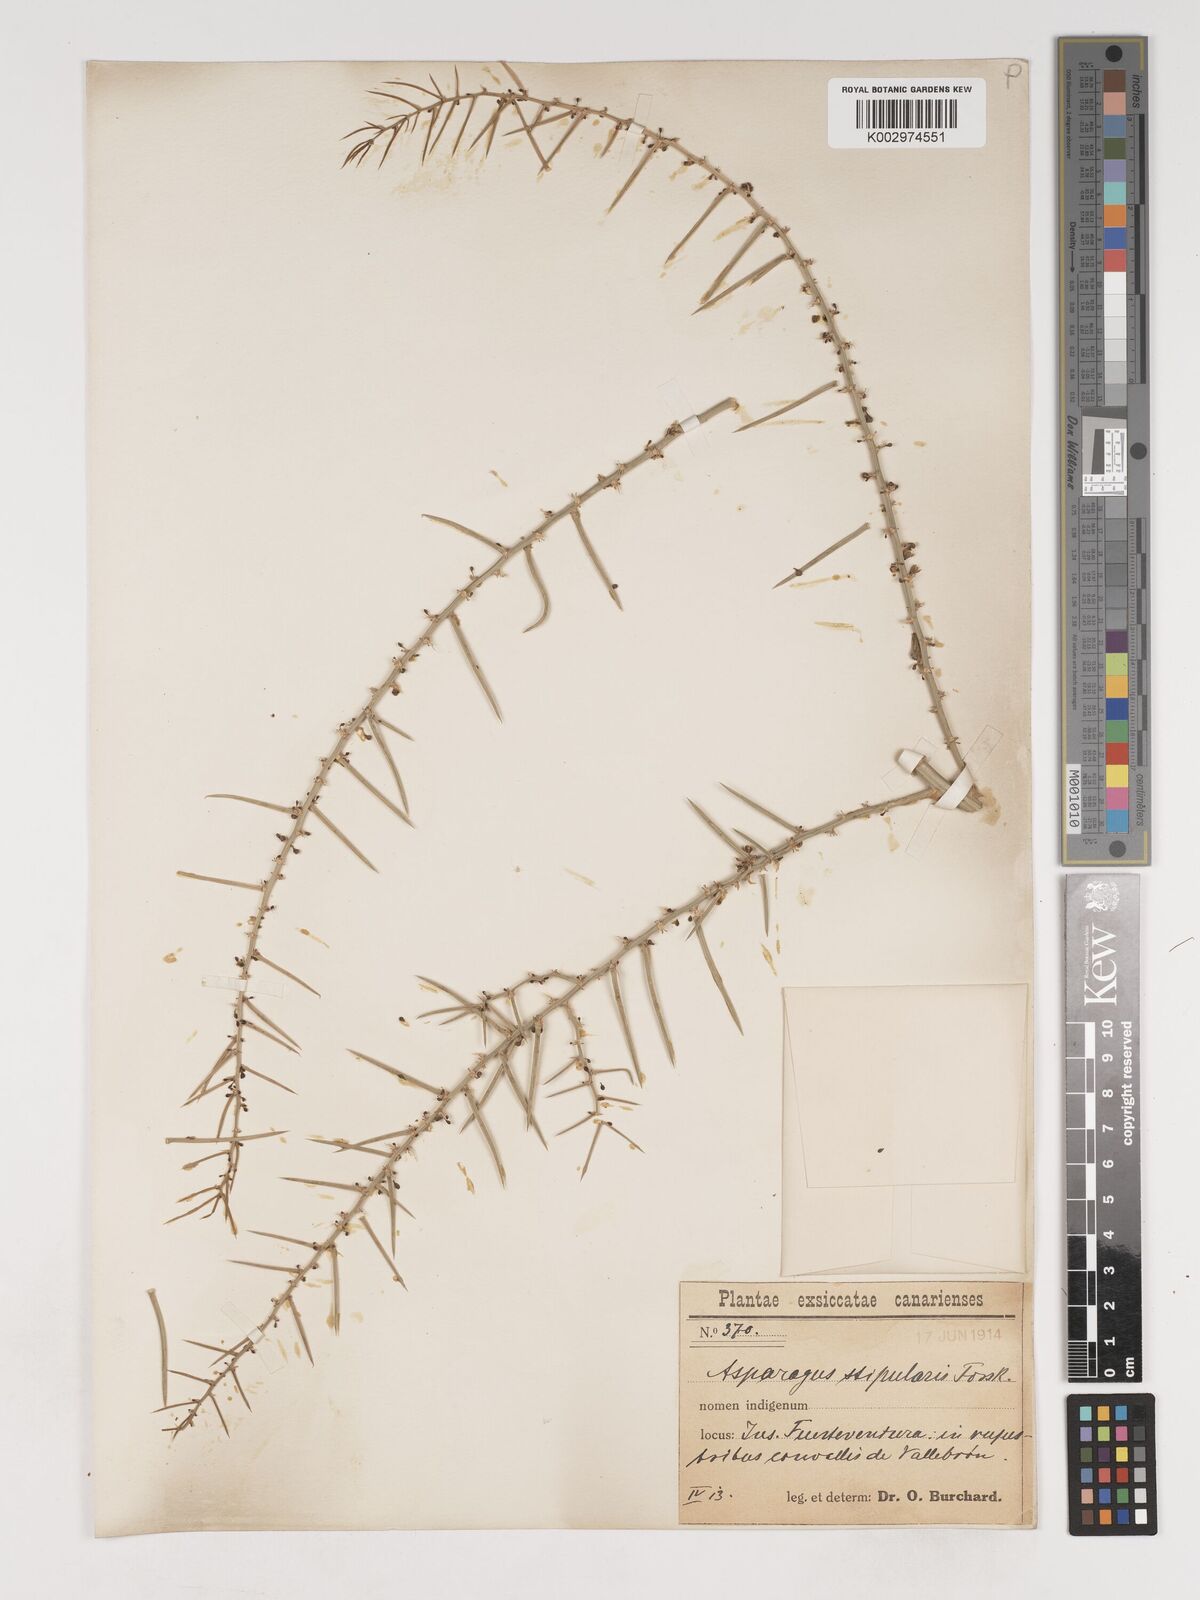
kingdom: Plantae
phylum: Tracheophyta
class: Liliopsida
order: Asparagales
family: Asparagaceae
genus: Asparagus
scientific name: Asparagus aphyllus
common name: Mediterranean asparagus
